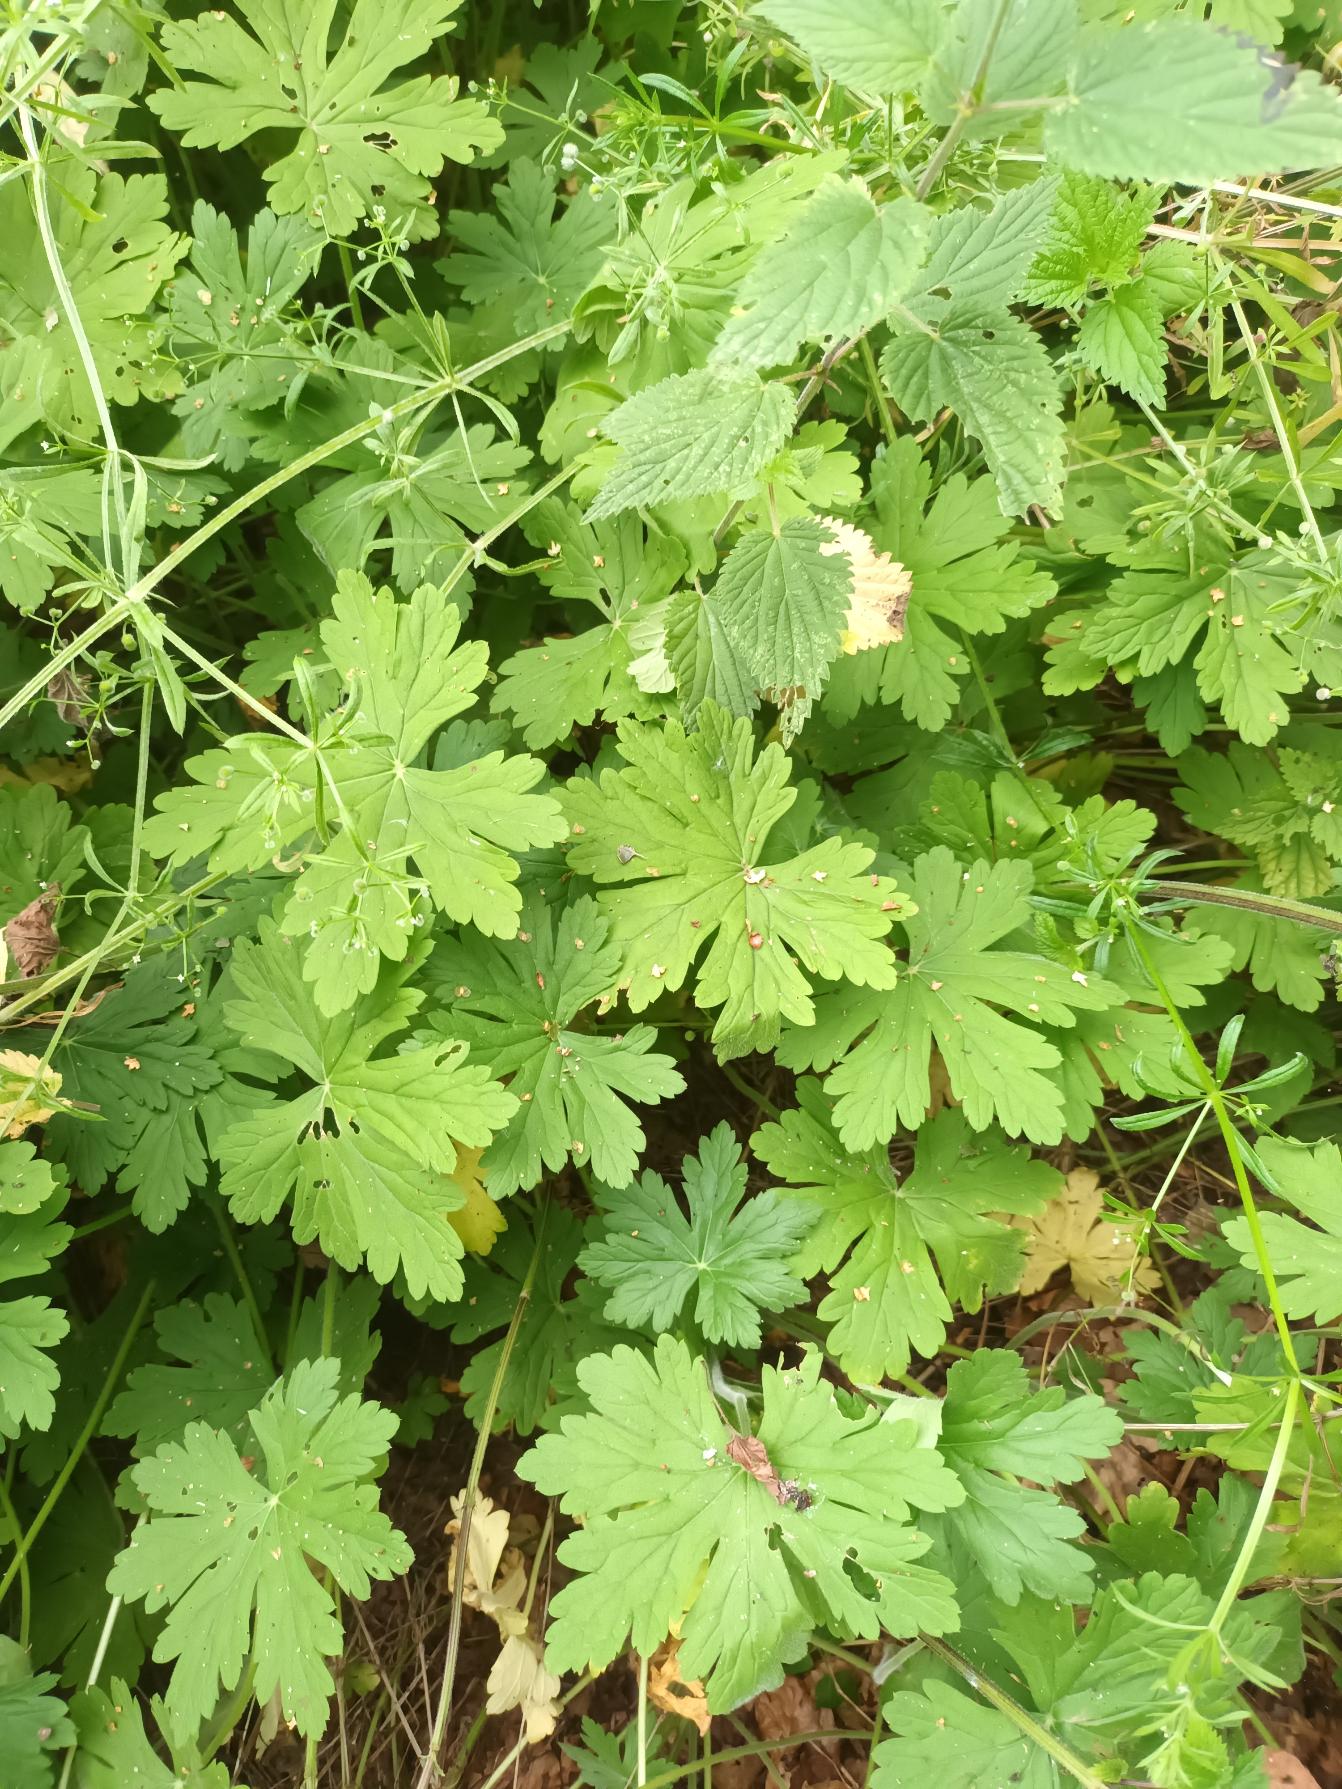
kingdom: Plantae
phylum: Tracheophyta
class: Magnoliopsida
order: Geraniales
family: Geraniaceae
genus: Geranium
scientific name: Geranium macrorrhizum
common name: Storrodet storkenæb
